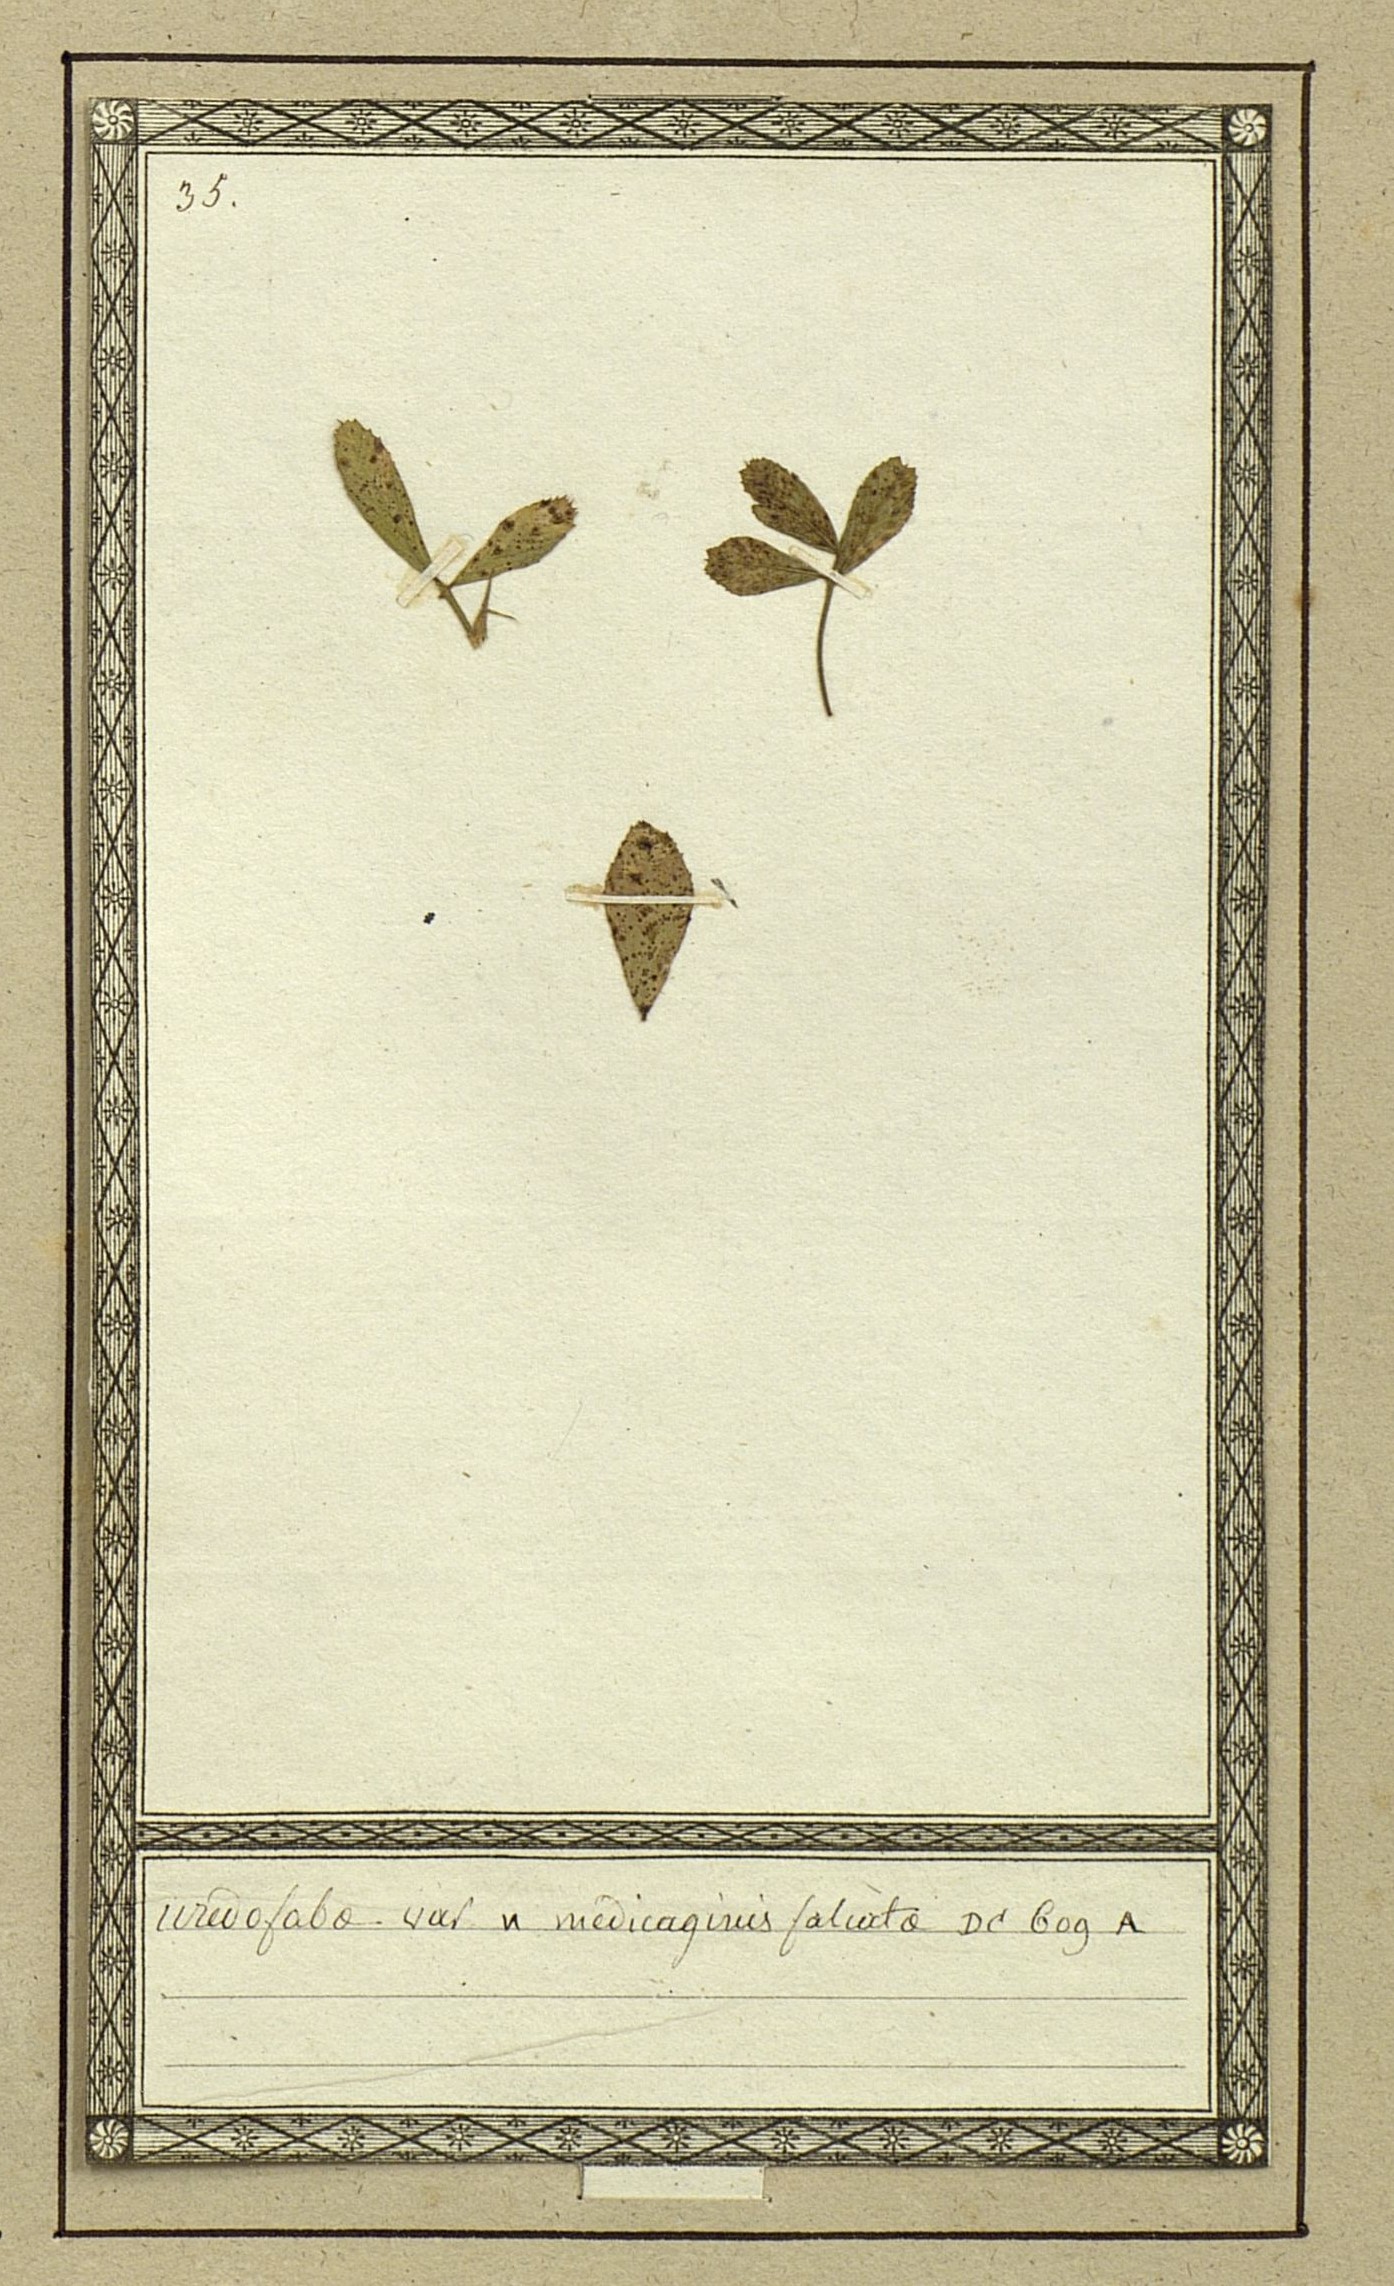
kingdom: Fungi
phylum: Basidiomycota
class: Pucciniomycetes
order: Pucciniales
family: Pucciniaceae
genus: Uromyces
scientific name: Uromyces viciae-fabae
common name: Broad bean rust
